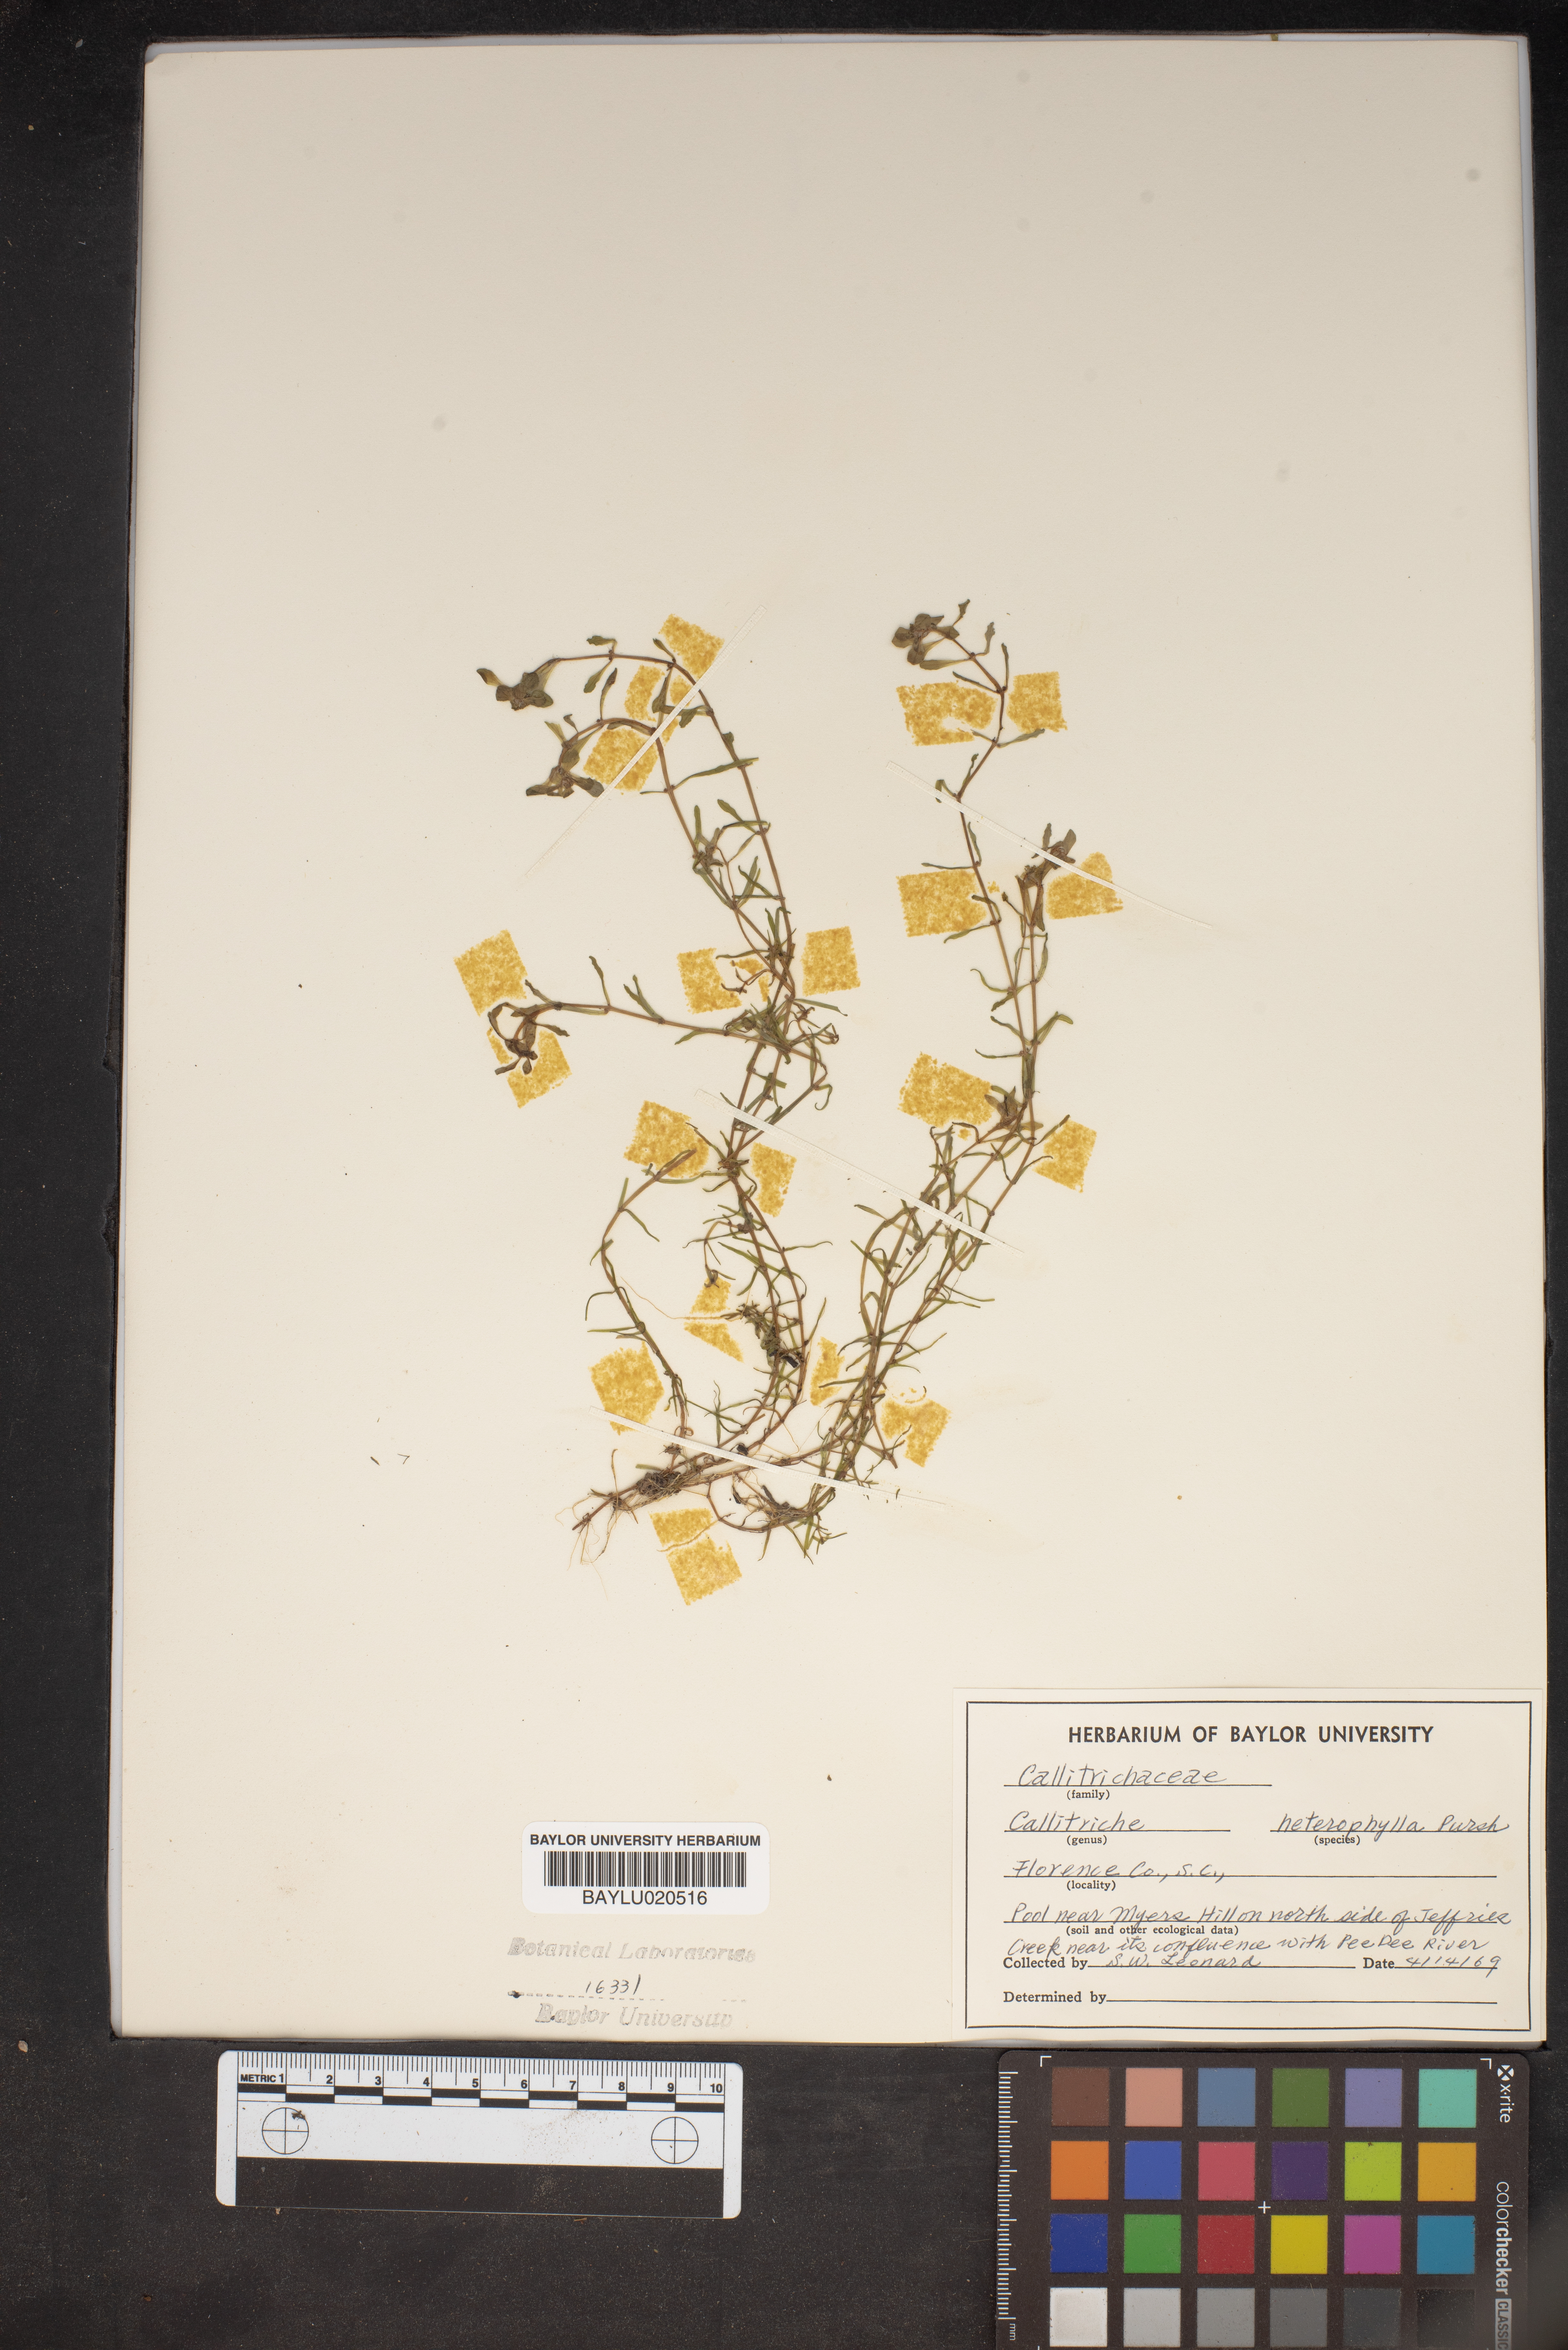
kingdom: Plantae
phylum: Tracheophyta
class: Magnoliopsida
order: Lamiales
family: Plantaginaceae
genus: Callitriche
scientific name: Callitriche heterophylla
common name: Two-headed water-starwort
